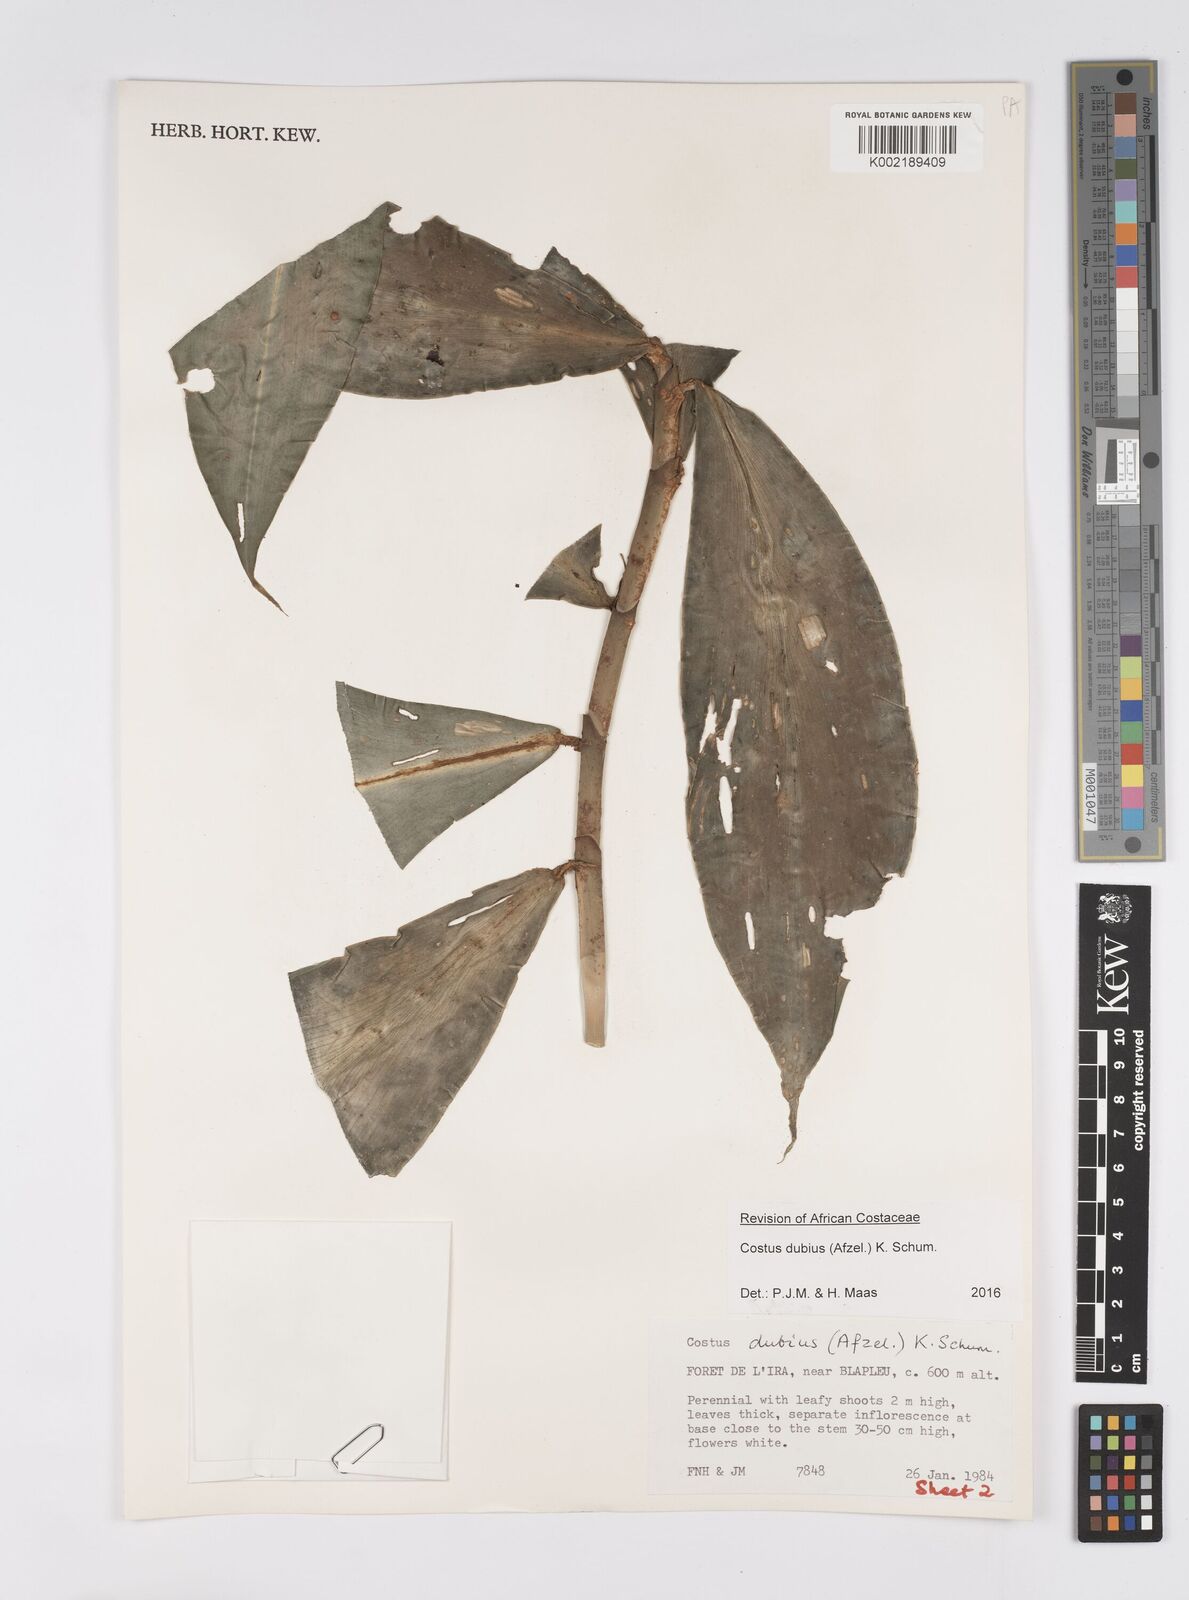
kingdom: Plantae
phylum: Tracheophyta
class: Liliopsida
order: Zingiberales
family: Costaceae
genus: Costus
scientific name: Costus dubius
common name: Costus
